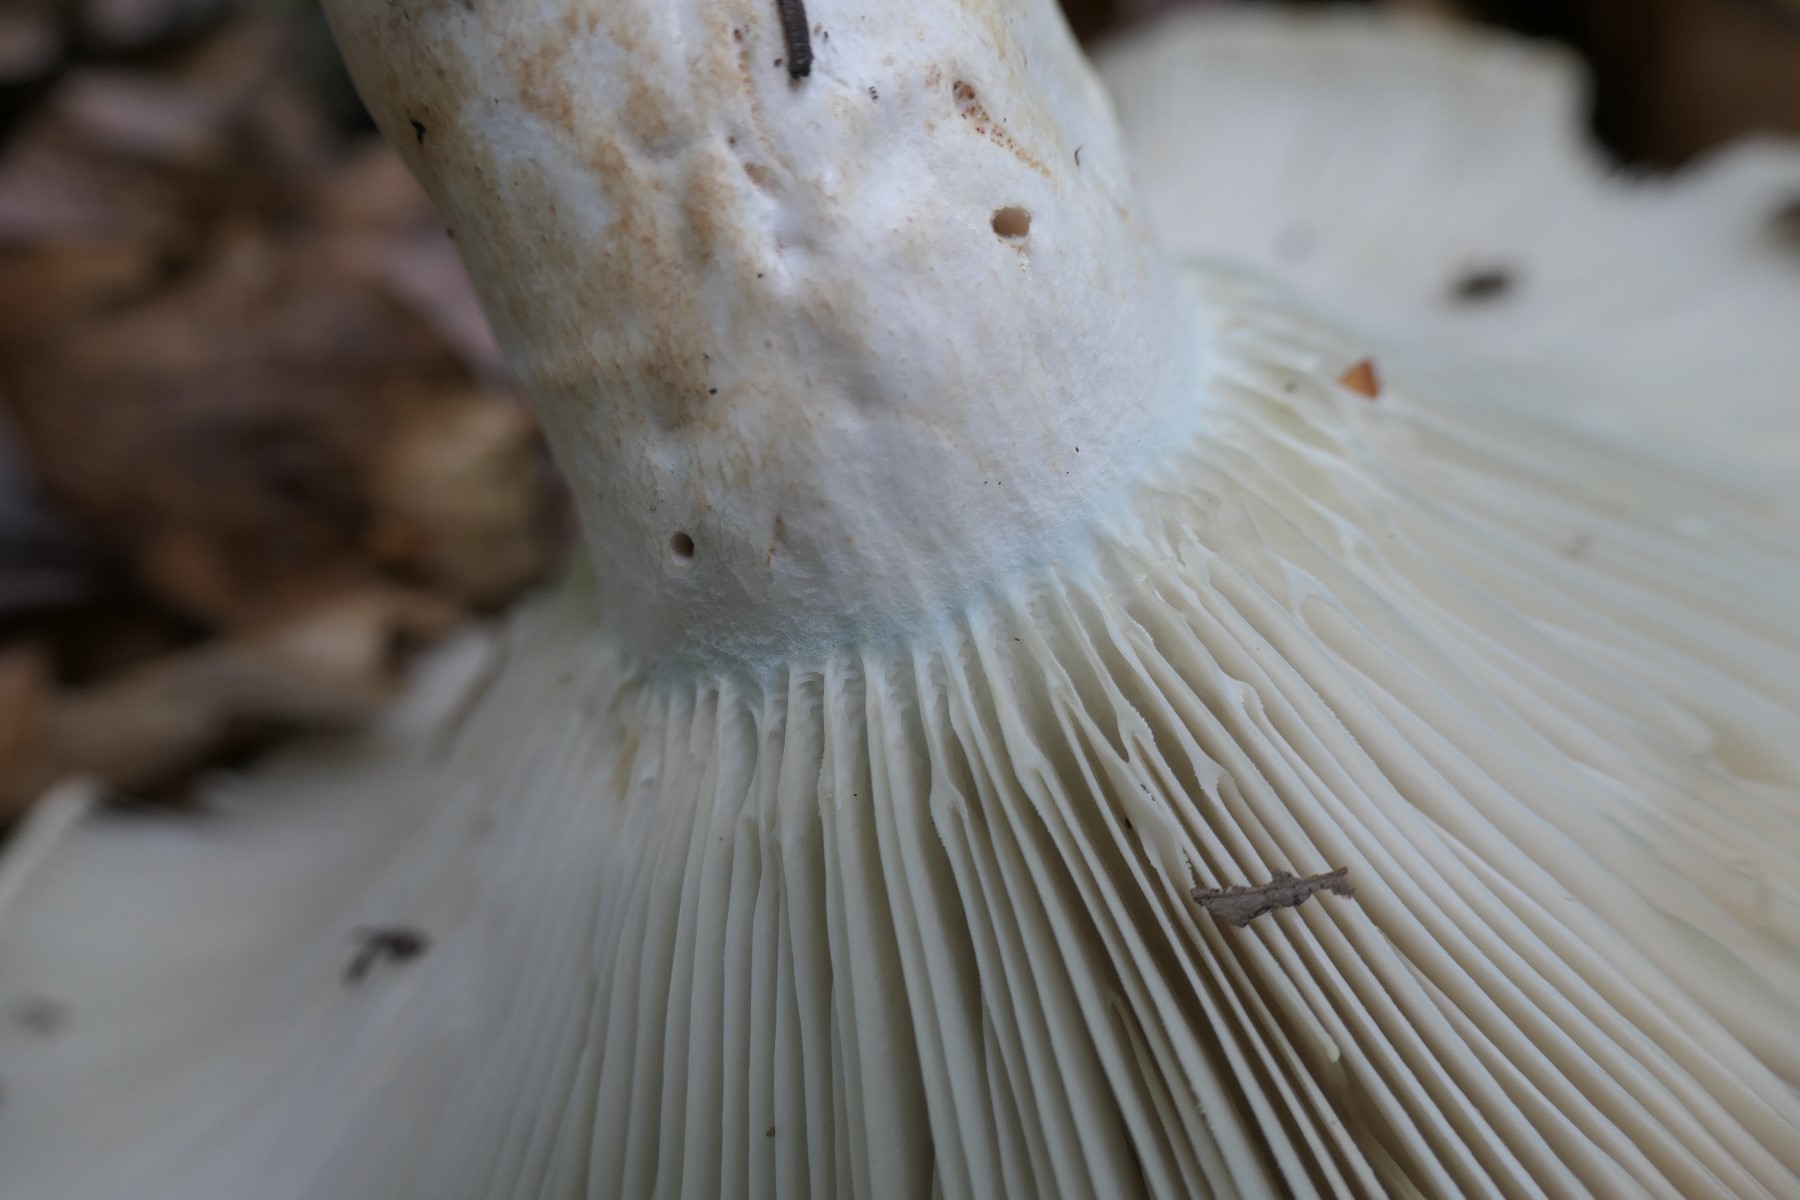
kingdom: Fungi
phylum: Basidiomycota
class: Agaricomycetes
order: Russulales
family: Russulaceae
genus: Russula
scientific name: Russula chloroides
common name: grønhalset tragt-skørhat
